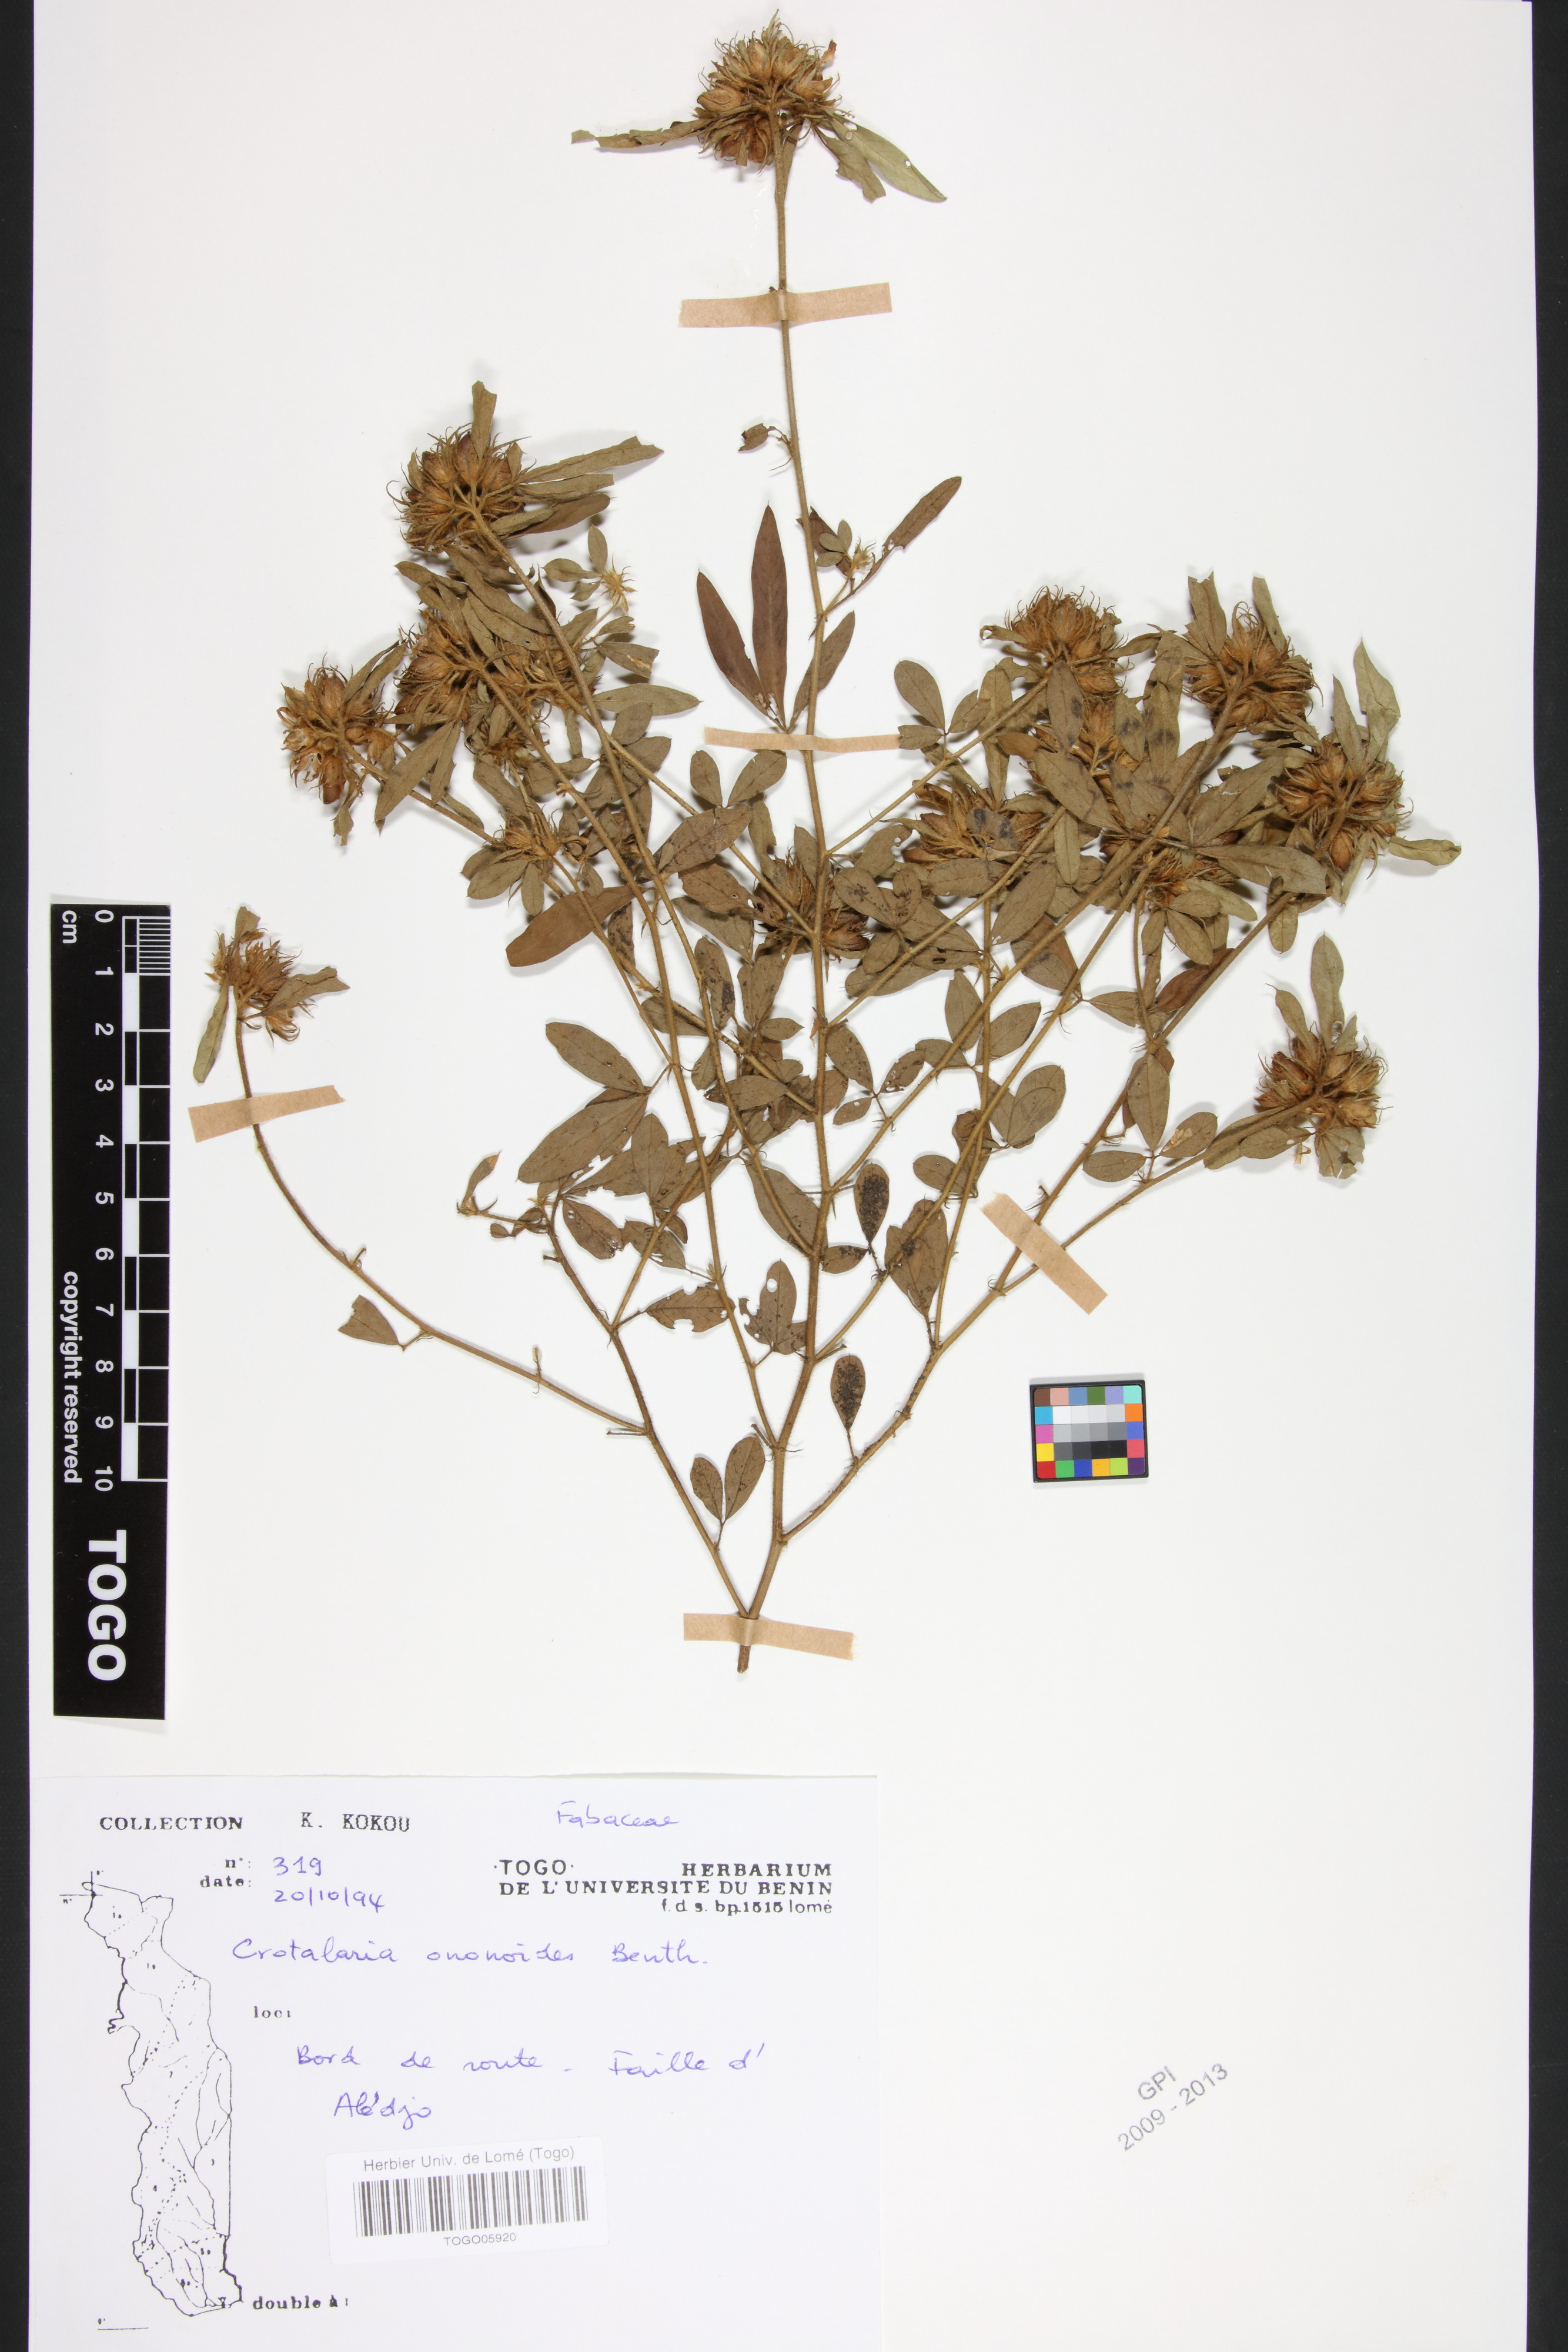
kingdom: Plantae
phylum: Tracheophyta
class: Magnoliopsida
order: Fabales
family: Fabaceae
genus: Crotalaria
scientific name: Crotalaria ononoides
